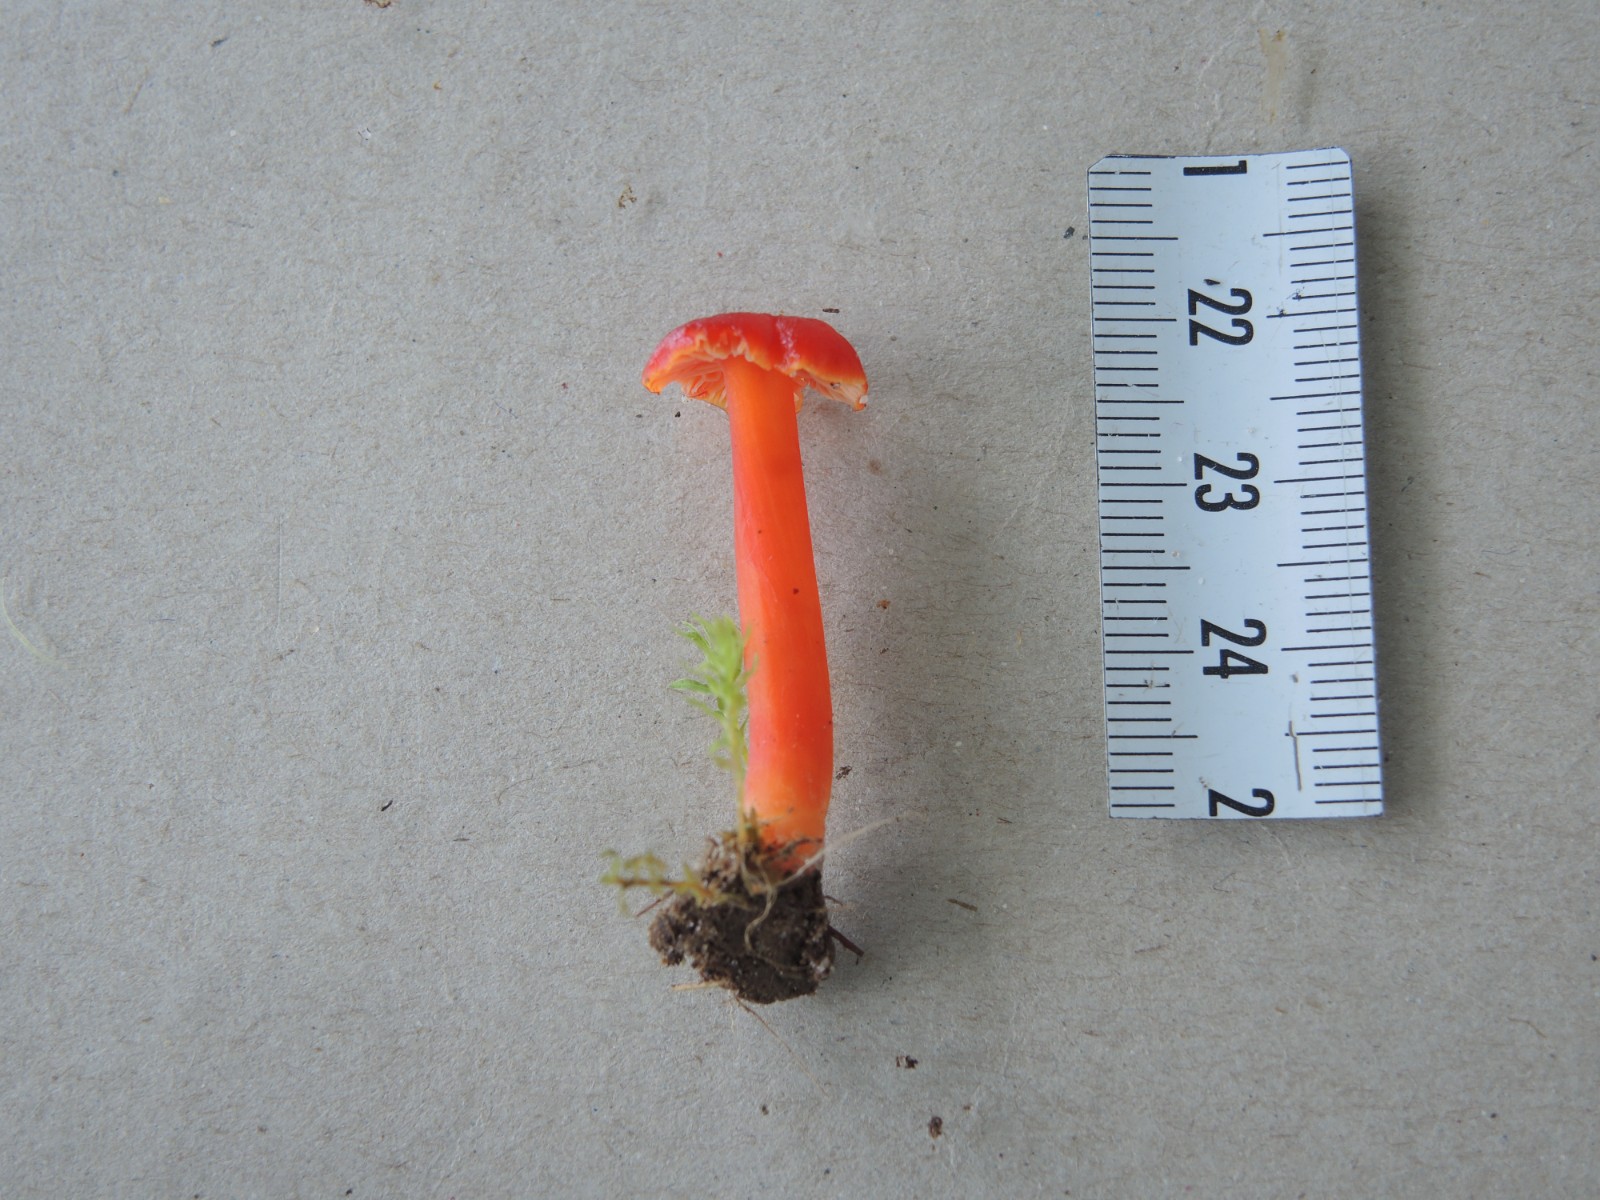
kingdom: Fungi
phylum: Basidiomycota
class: Agaricomycetes
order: Agaricales
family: Hygrophoraceae
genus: Hygrocybe
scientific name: Hygrocybe
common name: vokshat
